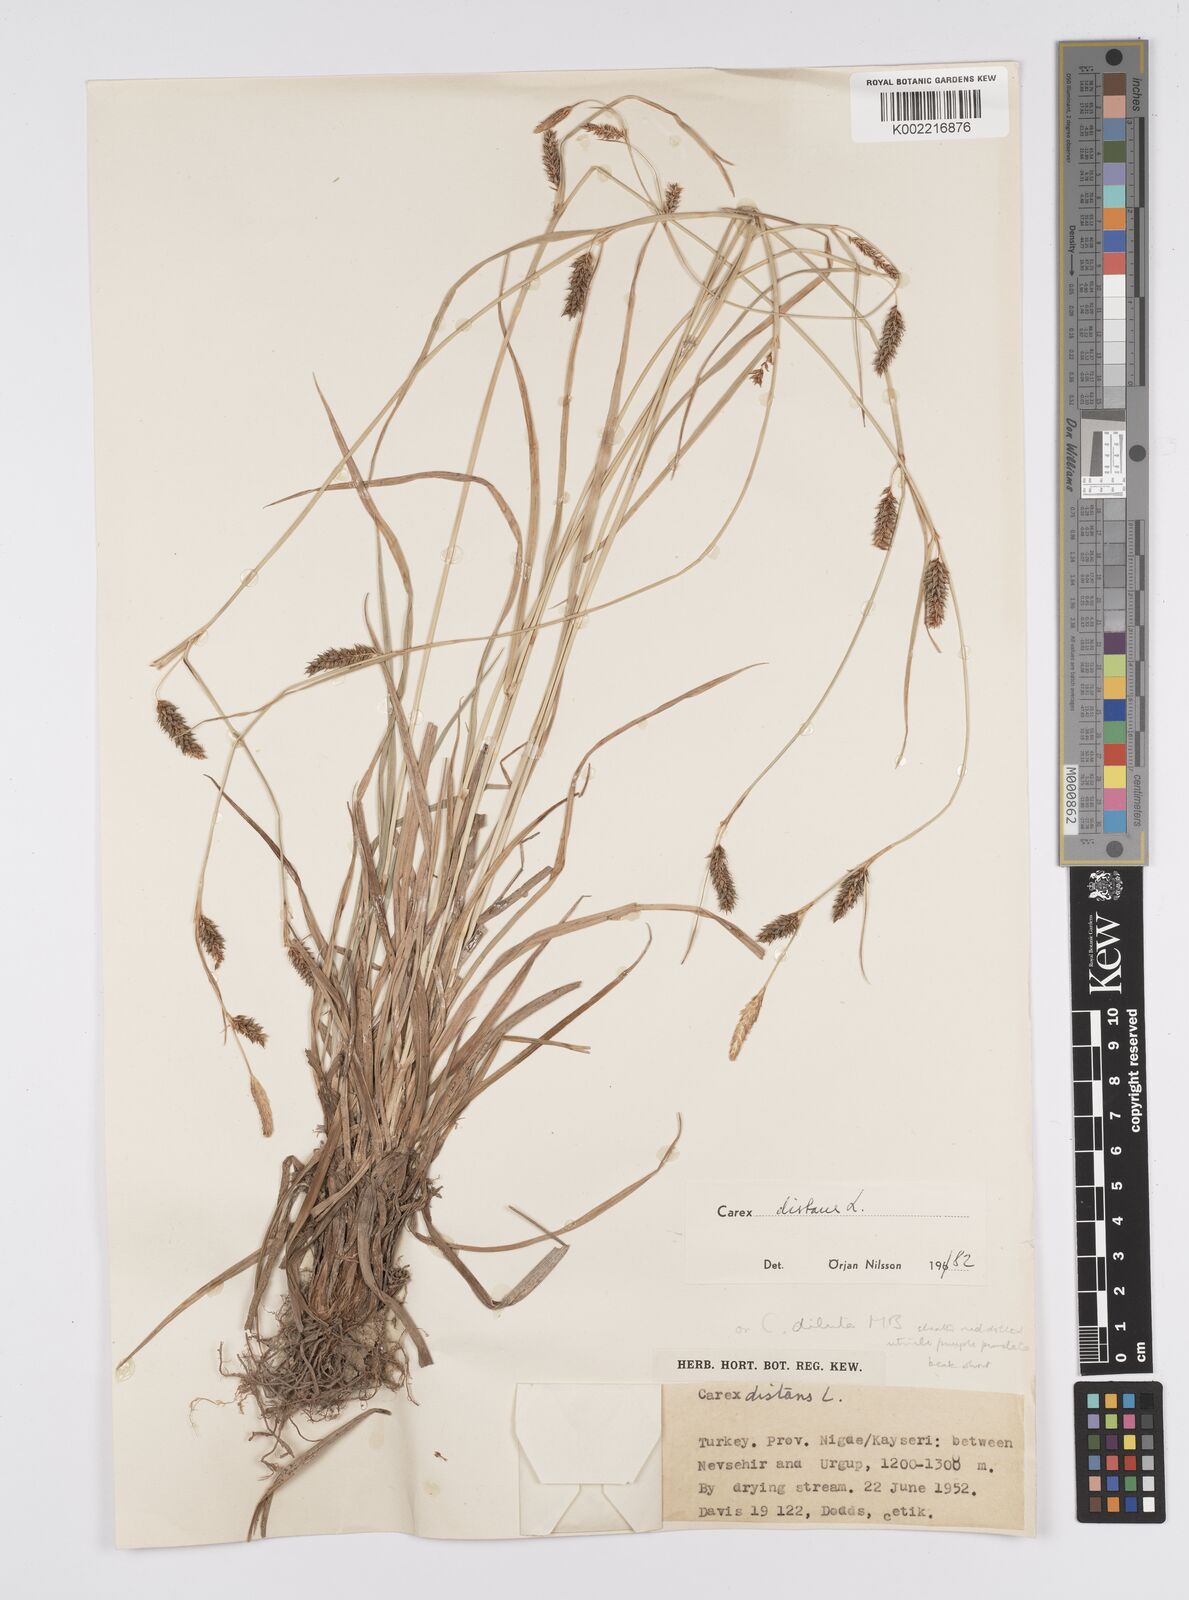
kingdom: Plantae
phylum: Tracheophyta
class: Liliopsida
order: Poales
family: Cyperaceae
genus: Carex
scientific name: Carex distans
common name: Distant sedge
